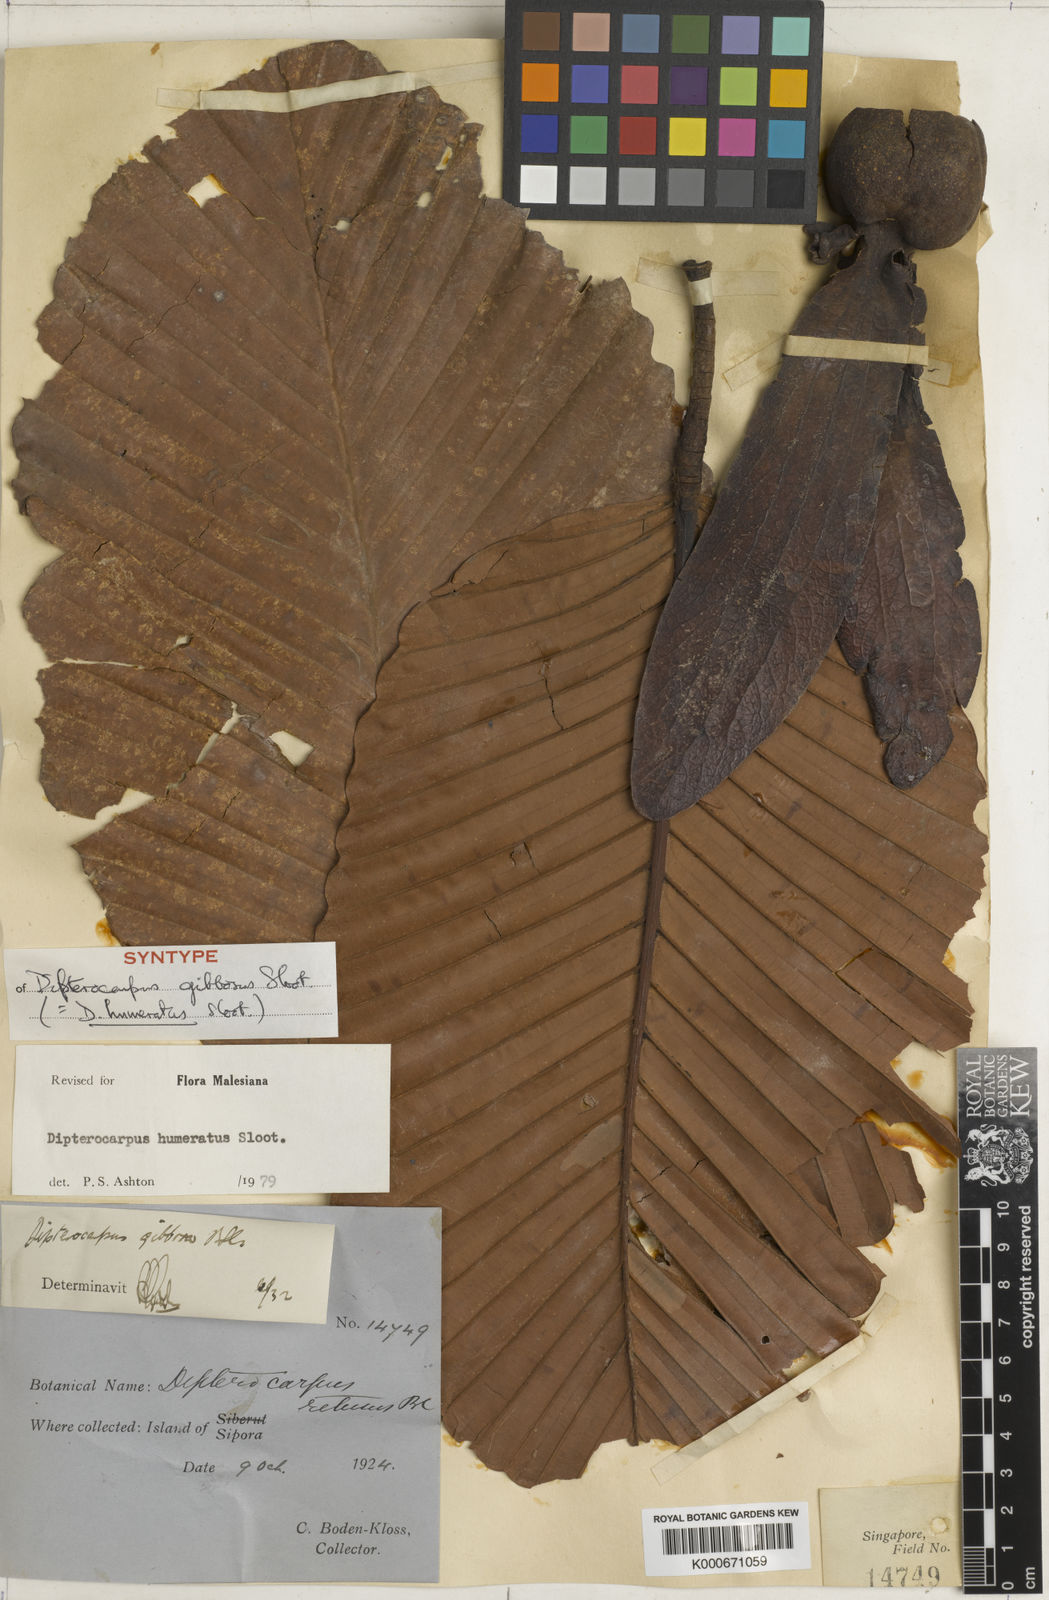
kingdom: Plantae
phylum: Tracheophyta
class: Magnoliopsida
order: Malvales
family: Dipterocarpaceae
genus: Dipterocarpus
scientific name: Dipterocarpus humeratus
